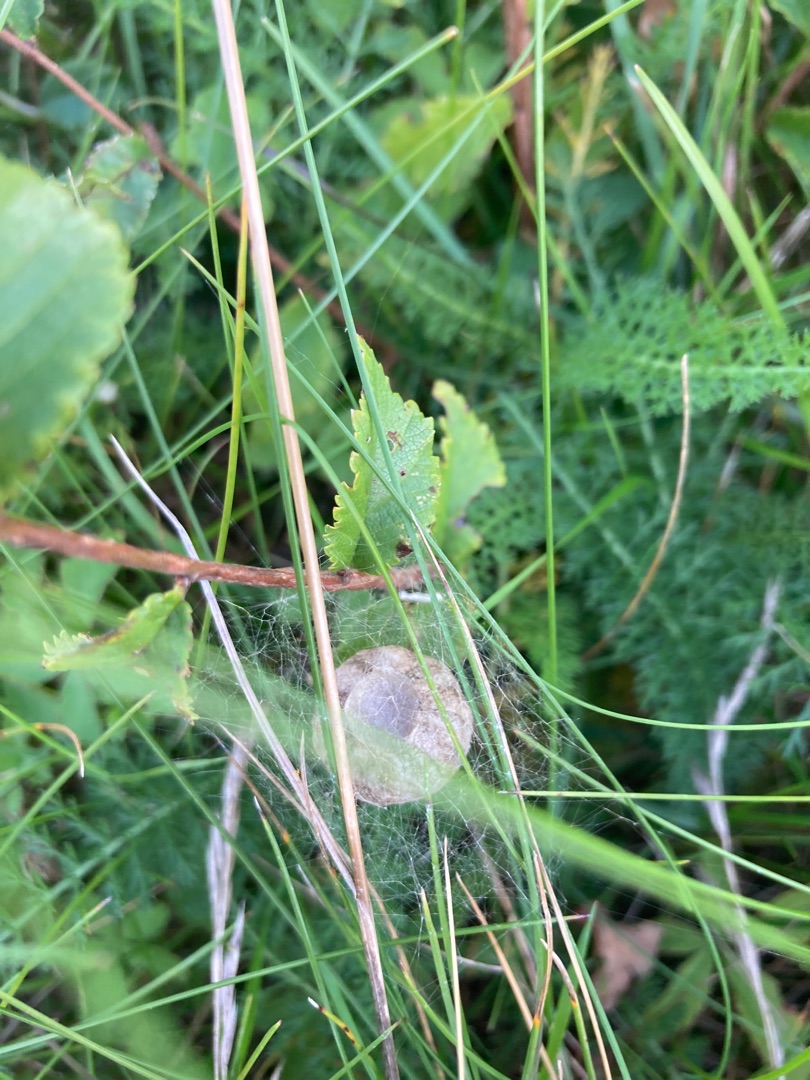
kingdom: Animalia
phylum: Arthropoda
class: Arachnida
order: Araneae
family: Araneidae
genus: Argiope
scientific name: Argiope bruennichi
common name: Hvepseedderkop
